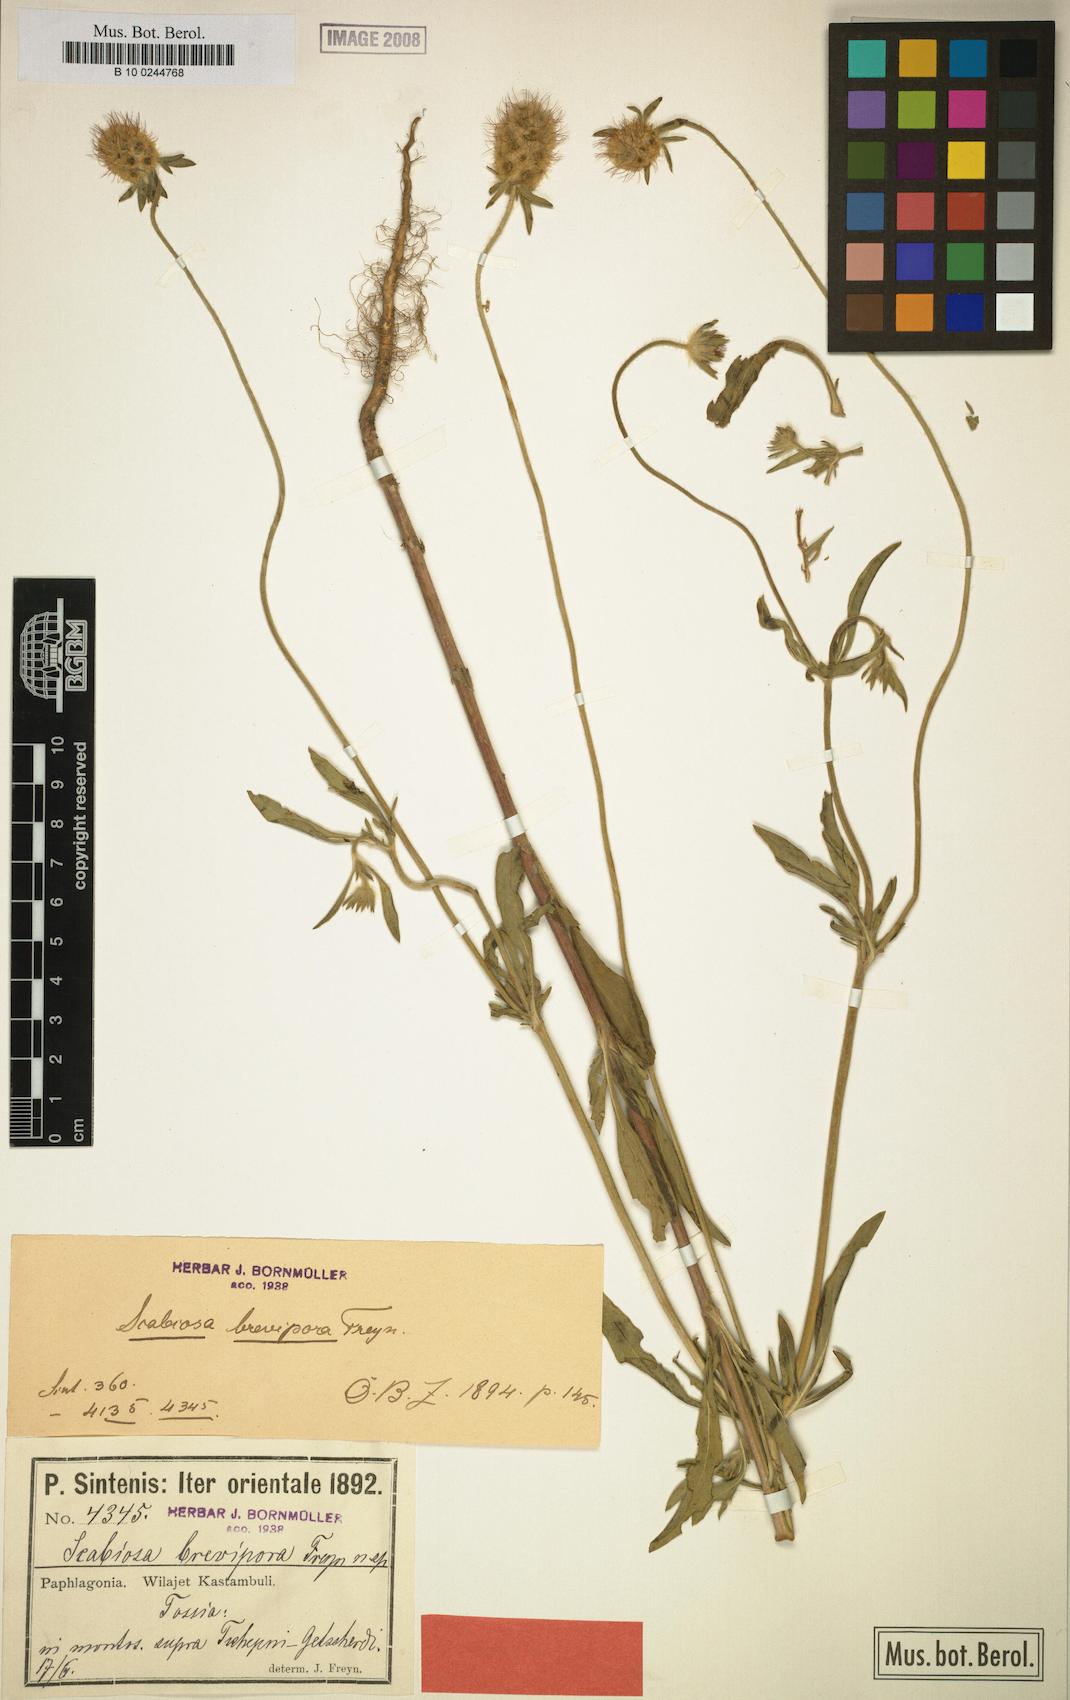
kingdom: Plantae
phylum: Tracheophyta
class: Magnoliopsida
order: Dipsacales
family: Caprifoliaceae
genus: Lomelosia
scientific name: Lomelosia micrantha
